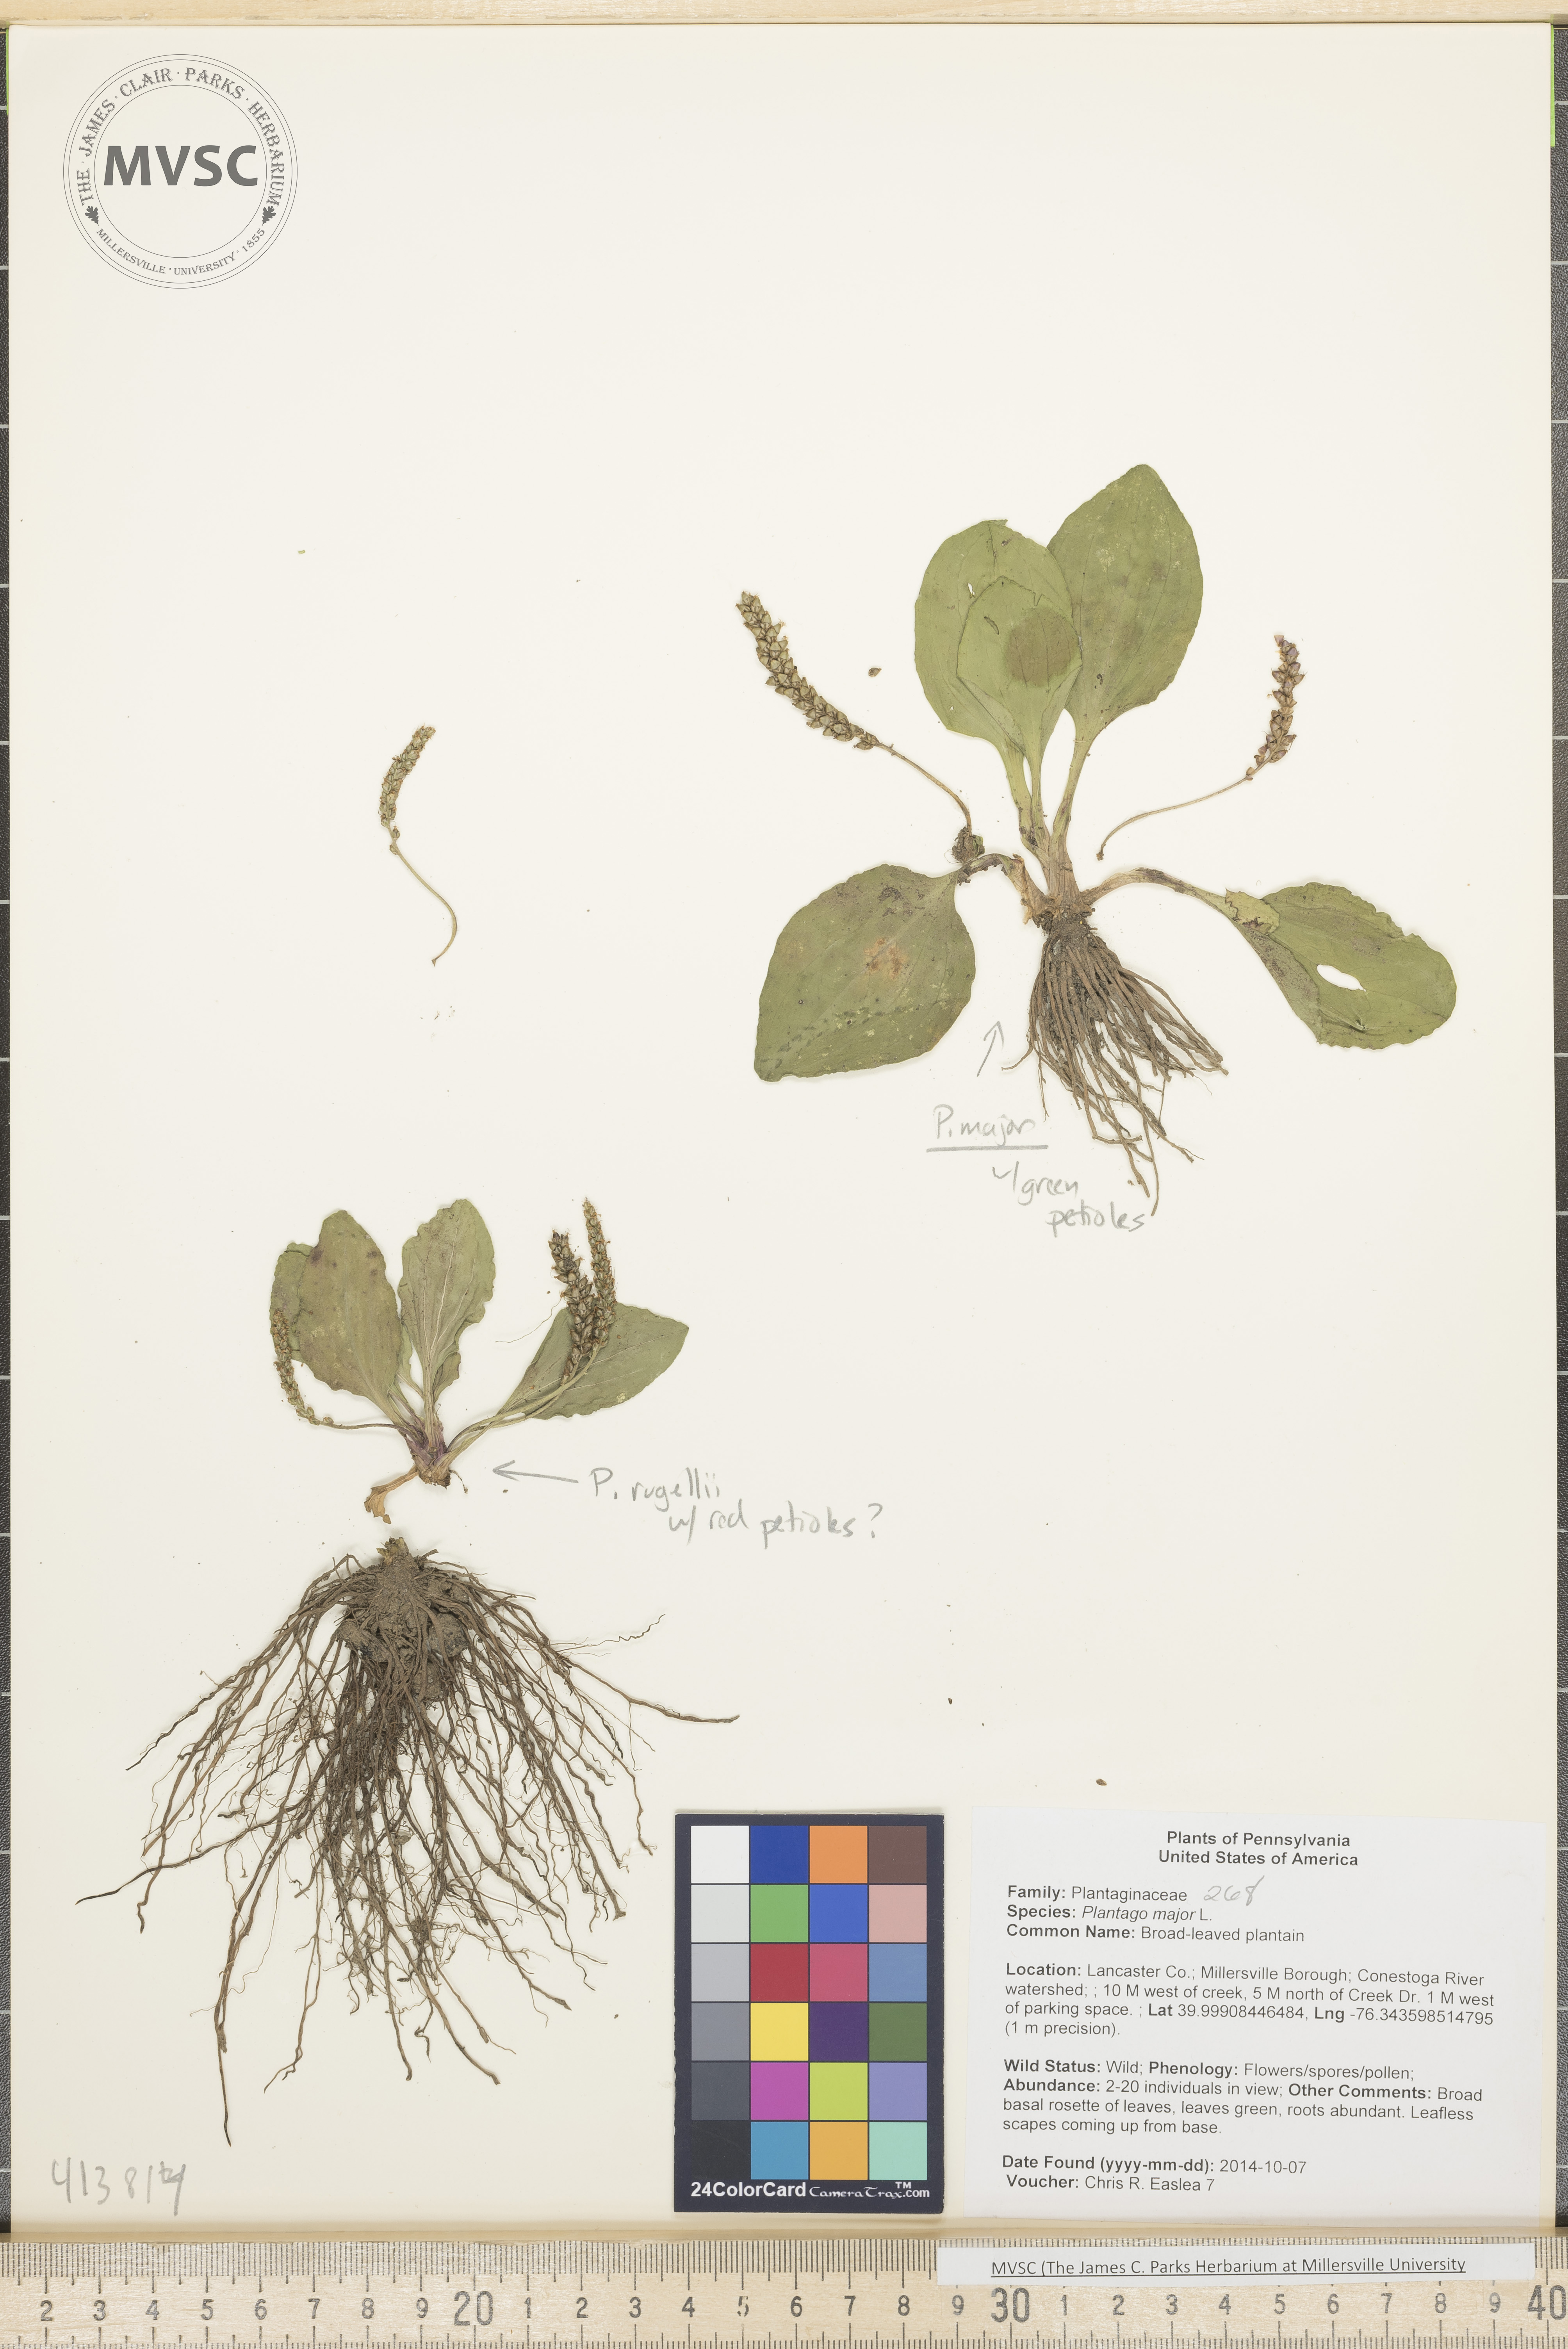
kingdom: Plantae
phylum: Tracheophyta
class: Magnoliopsida
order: Lamiales
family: Plantaginaceae
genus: Plantago
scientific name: Plantago major
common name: Broad-leaved plantain
